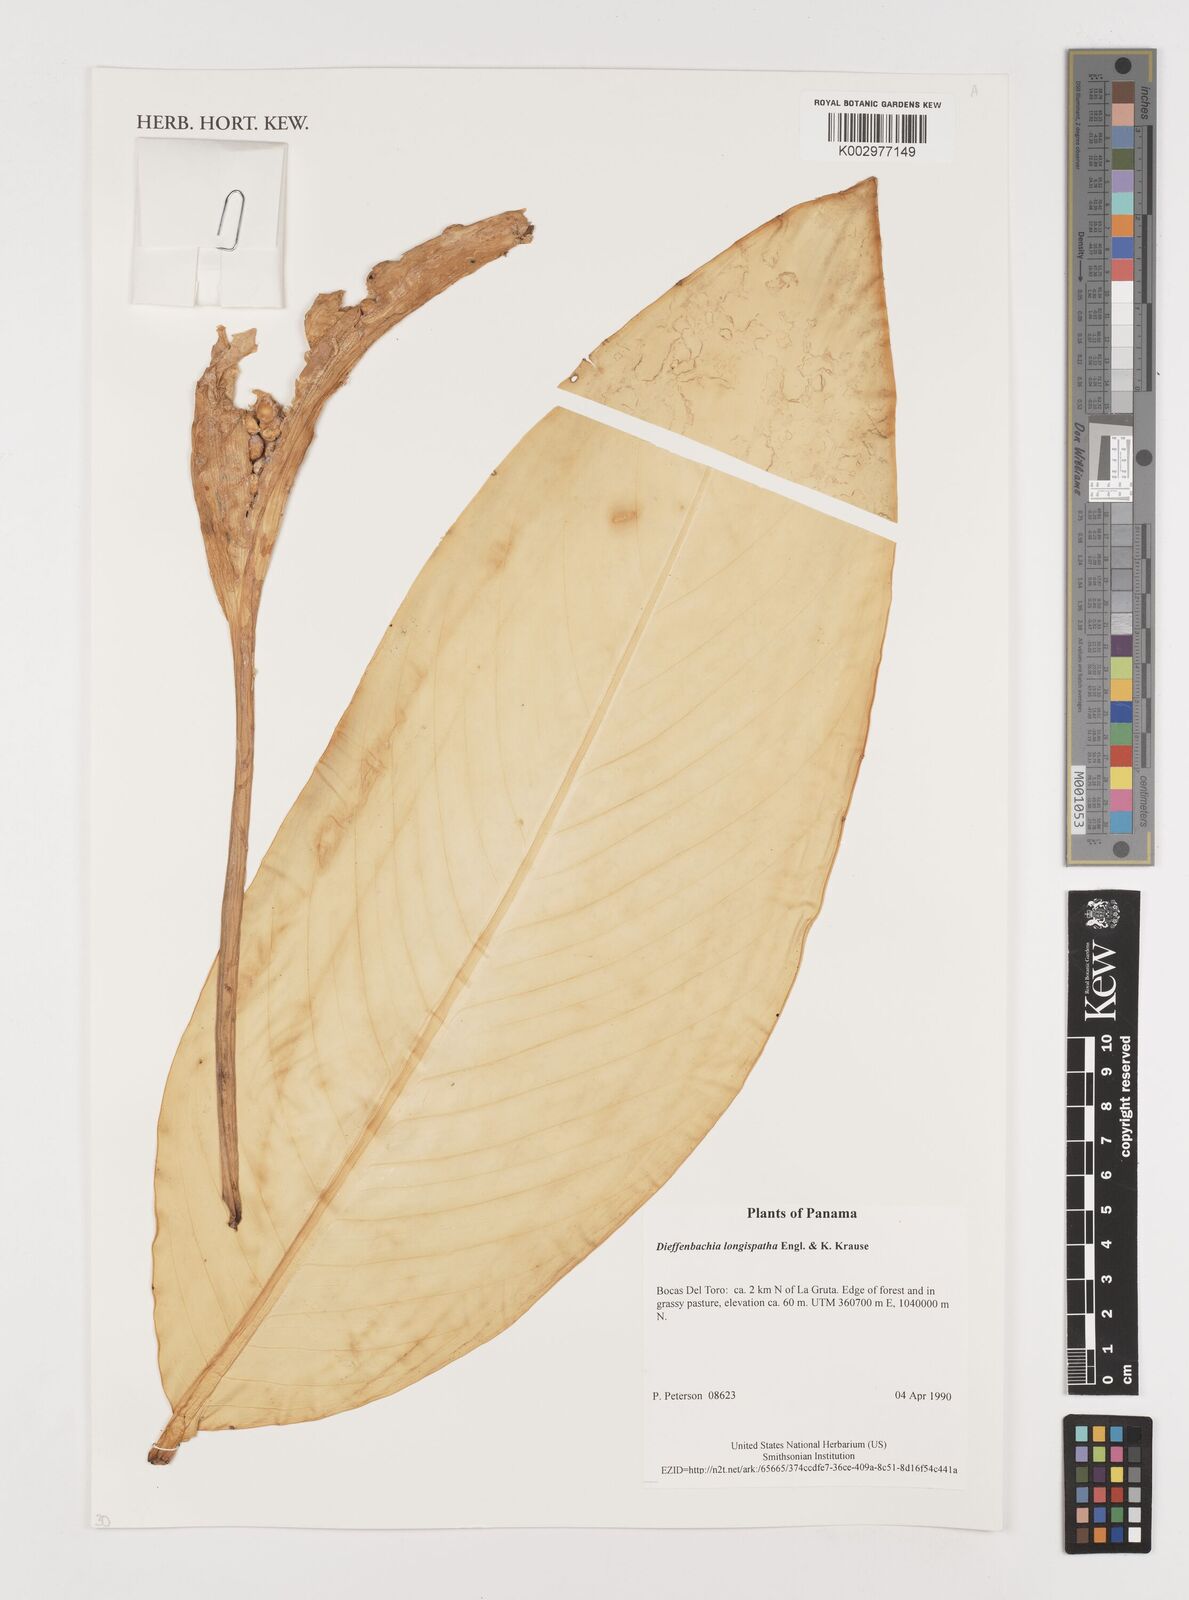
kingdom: Plantae
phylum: Tracheophyta
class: Liliopsida
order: Alismatales
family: Araceae
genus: Dieffenbachia
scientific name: Dieffenbachia longispatha
